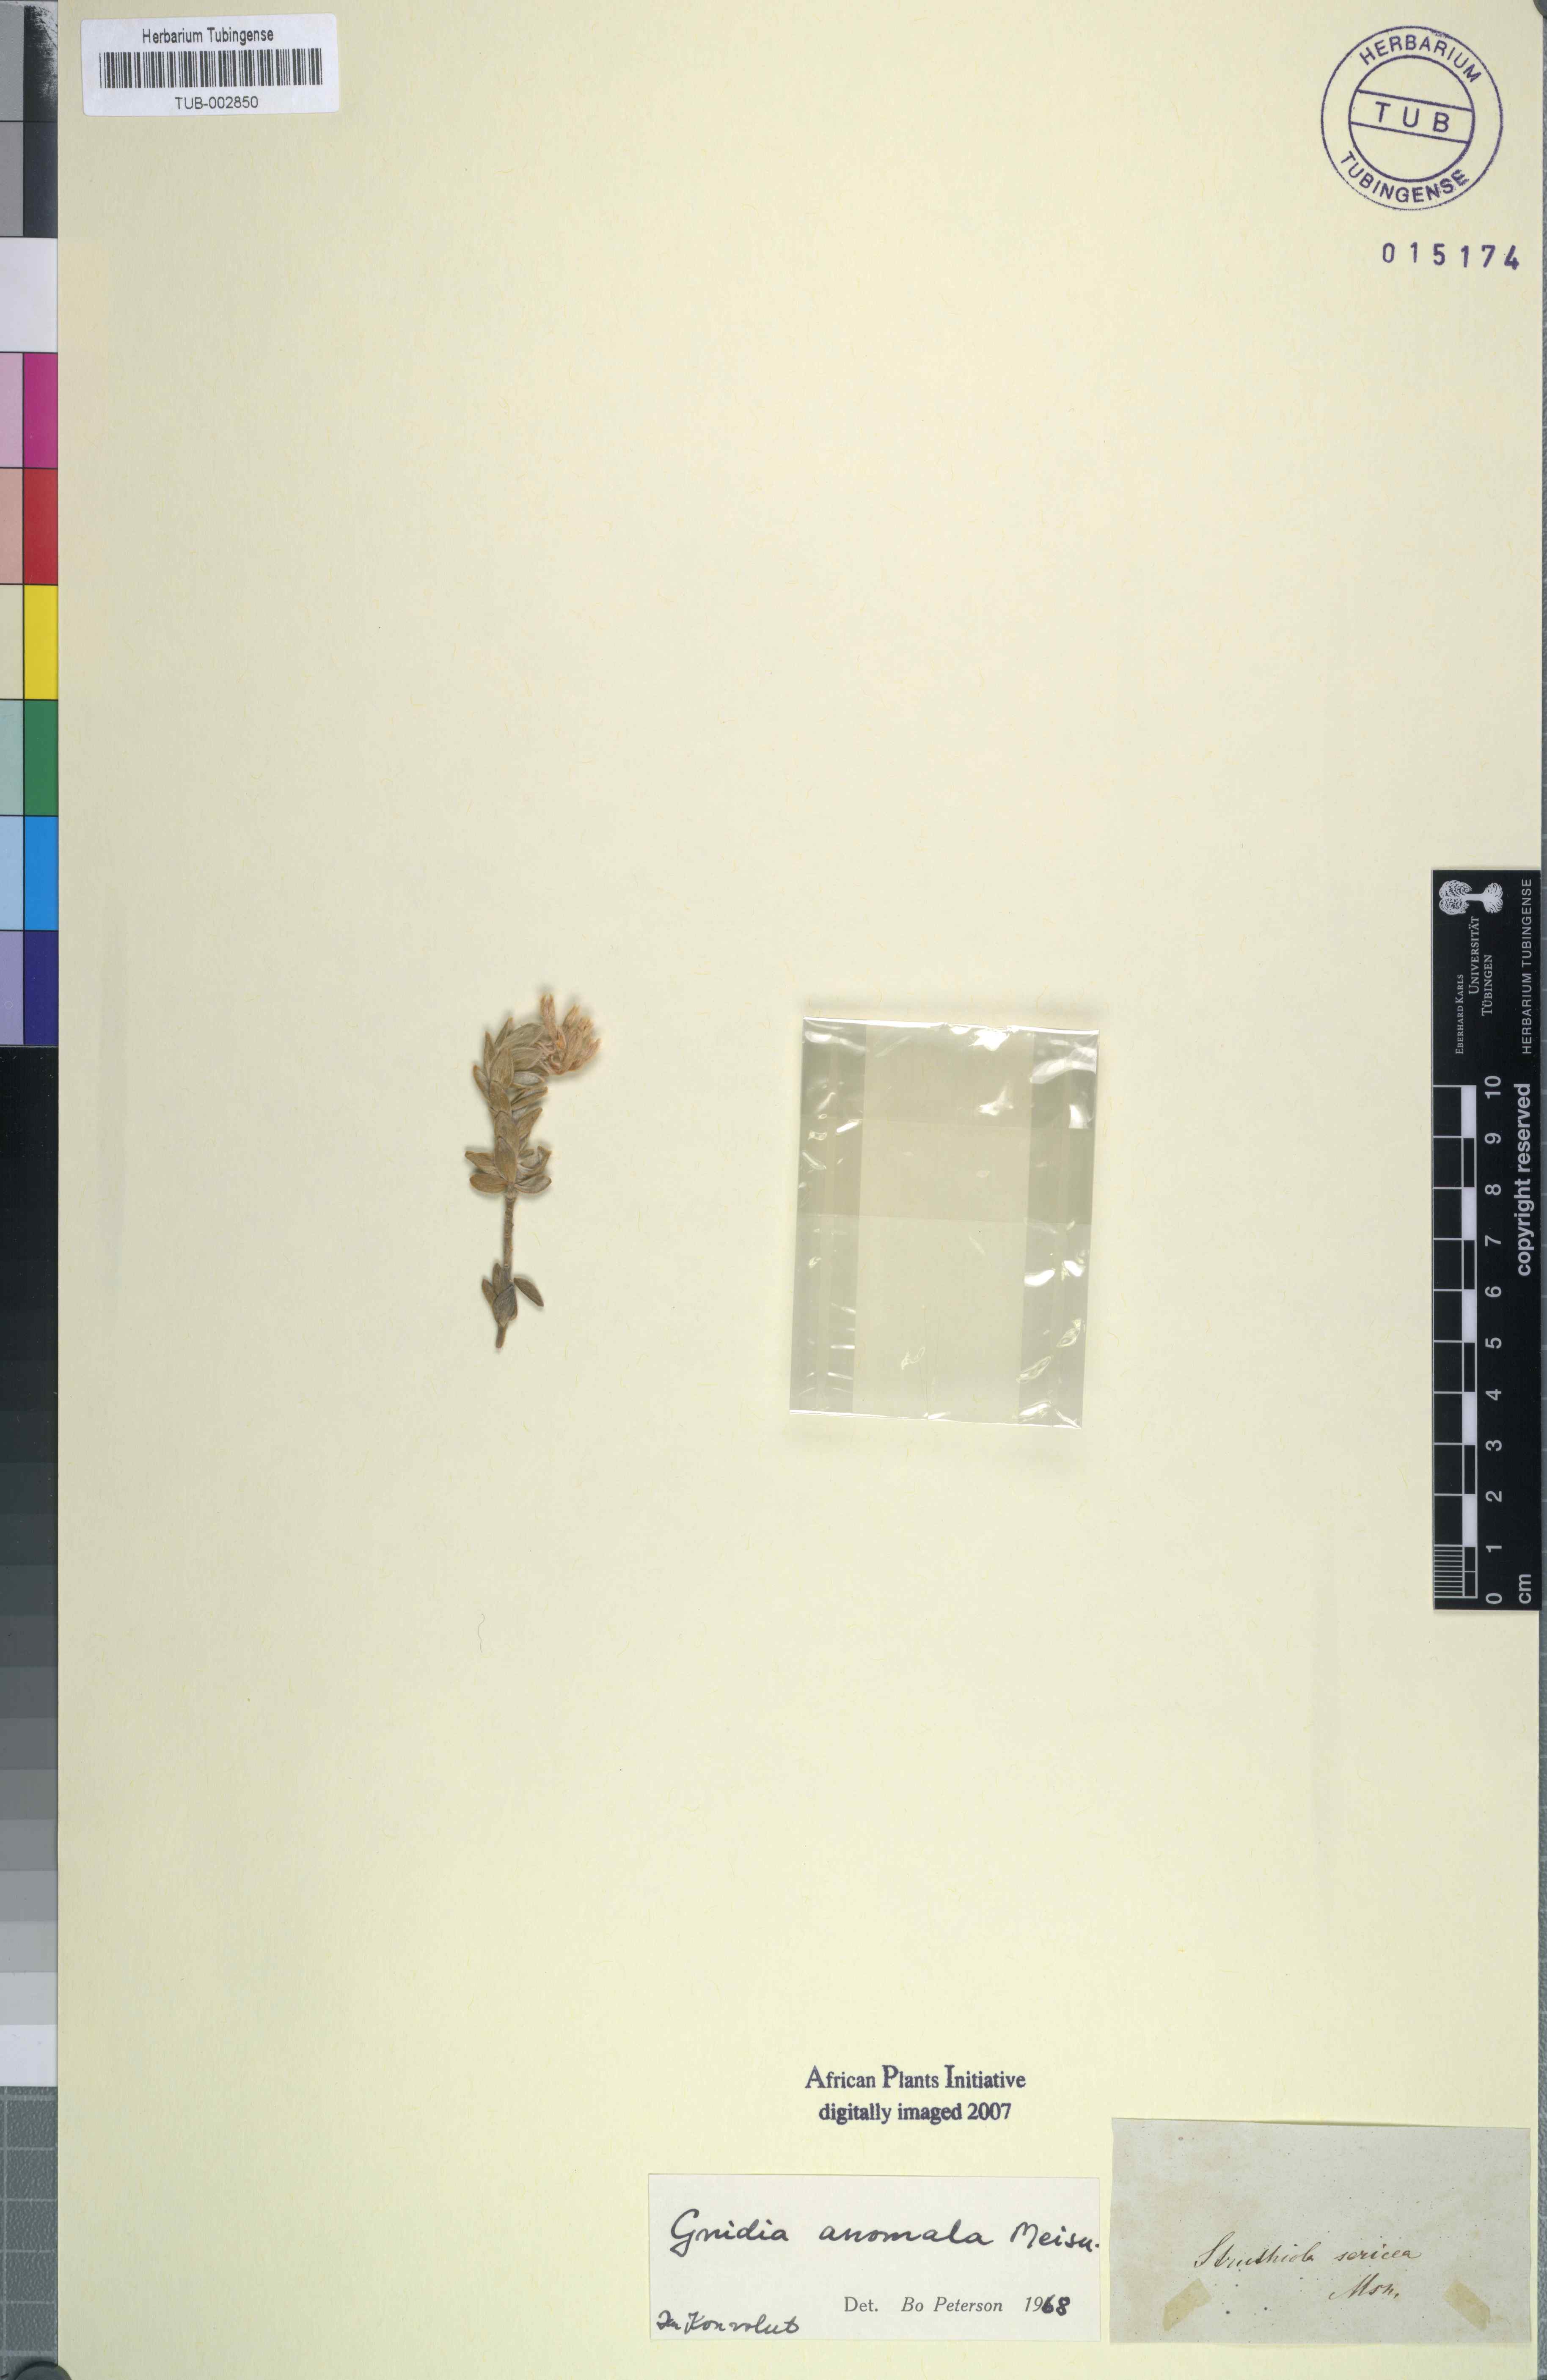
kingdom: Plantae
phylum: Tracheophyta
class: Magnoliopsida
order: Malvales
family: Thymelaeaceae
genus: Gnidia
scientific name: Gnidia anomala
